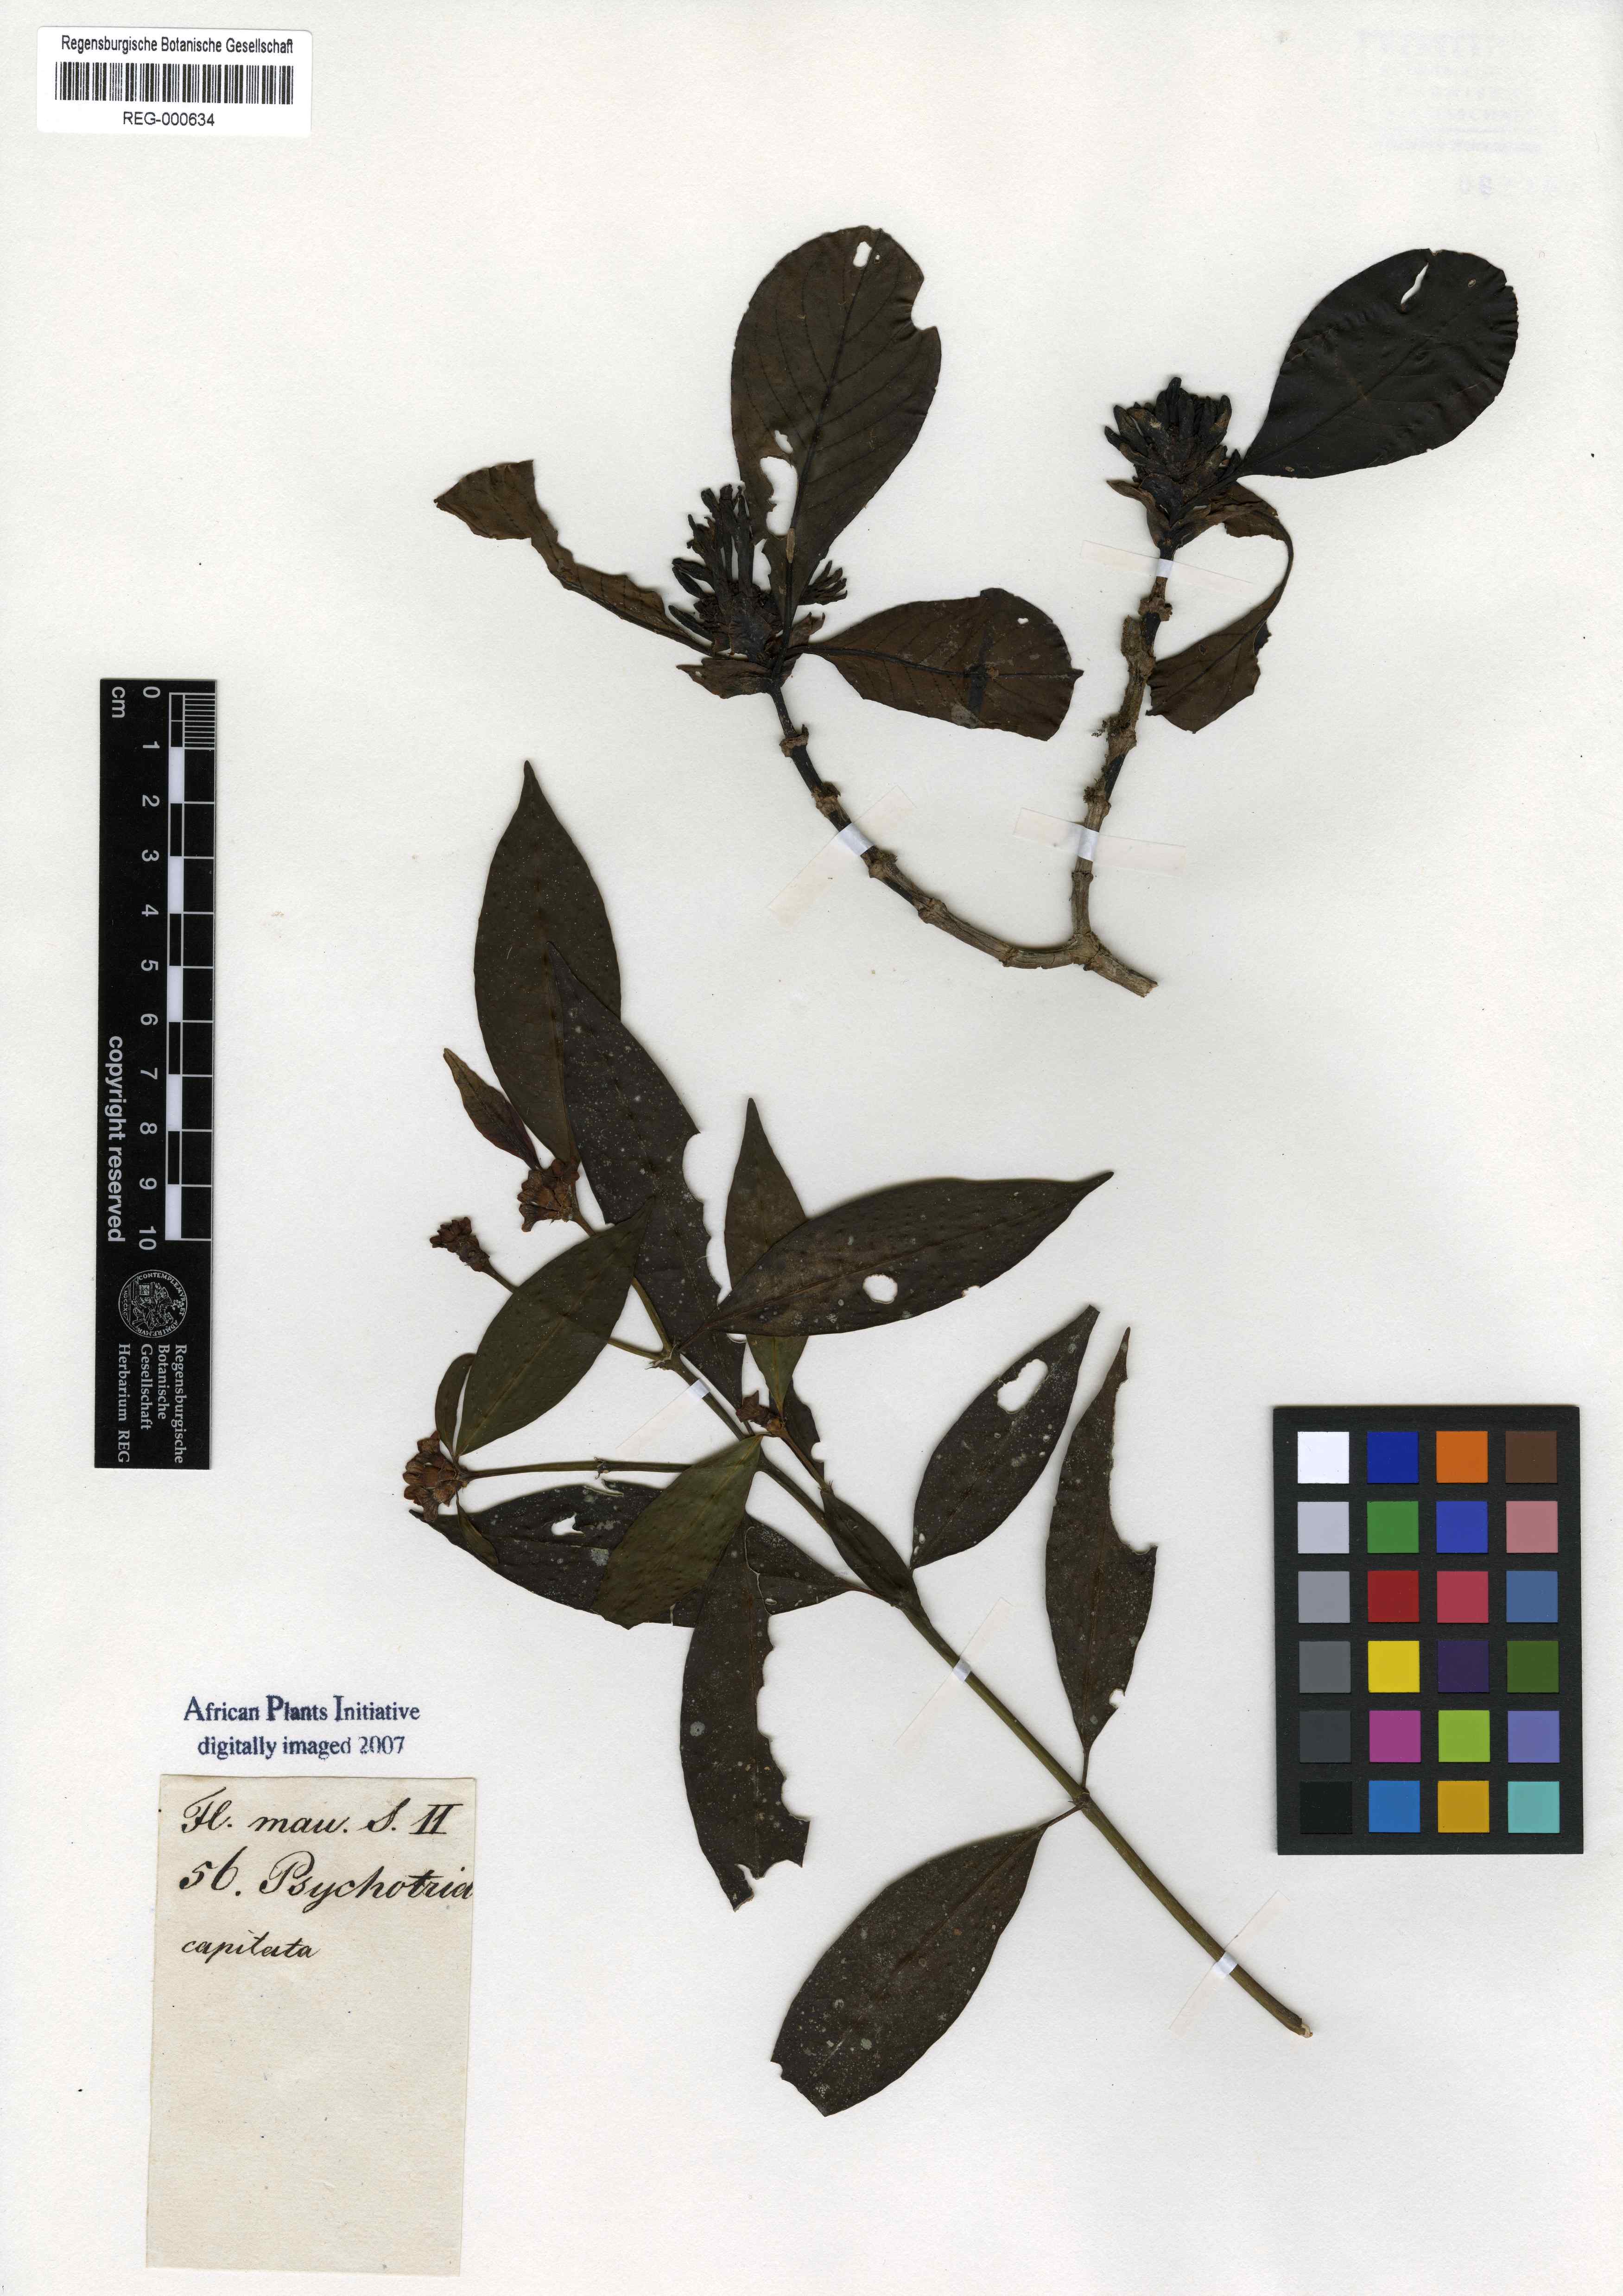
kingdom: Plantae
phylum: Tracheophyta
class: Magnoliopsida
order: Gentianales
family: Rubiaceae
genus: Psychotria
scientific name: Psychotria capitata
